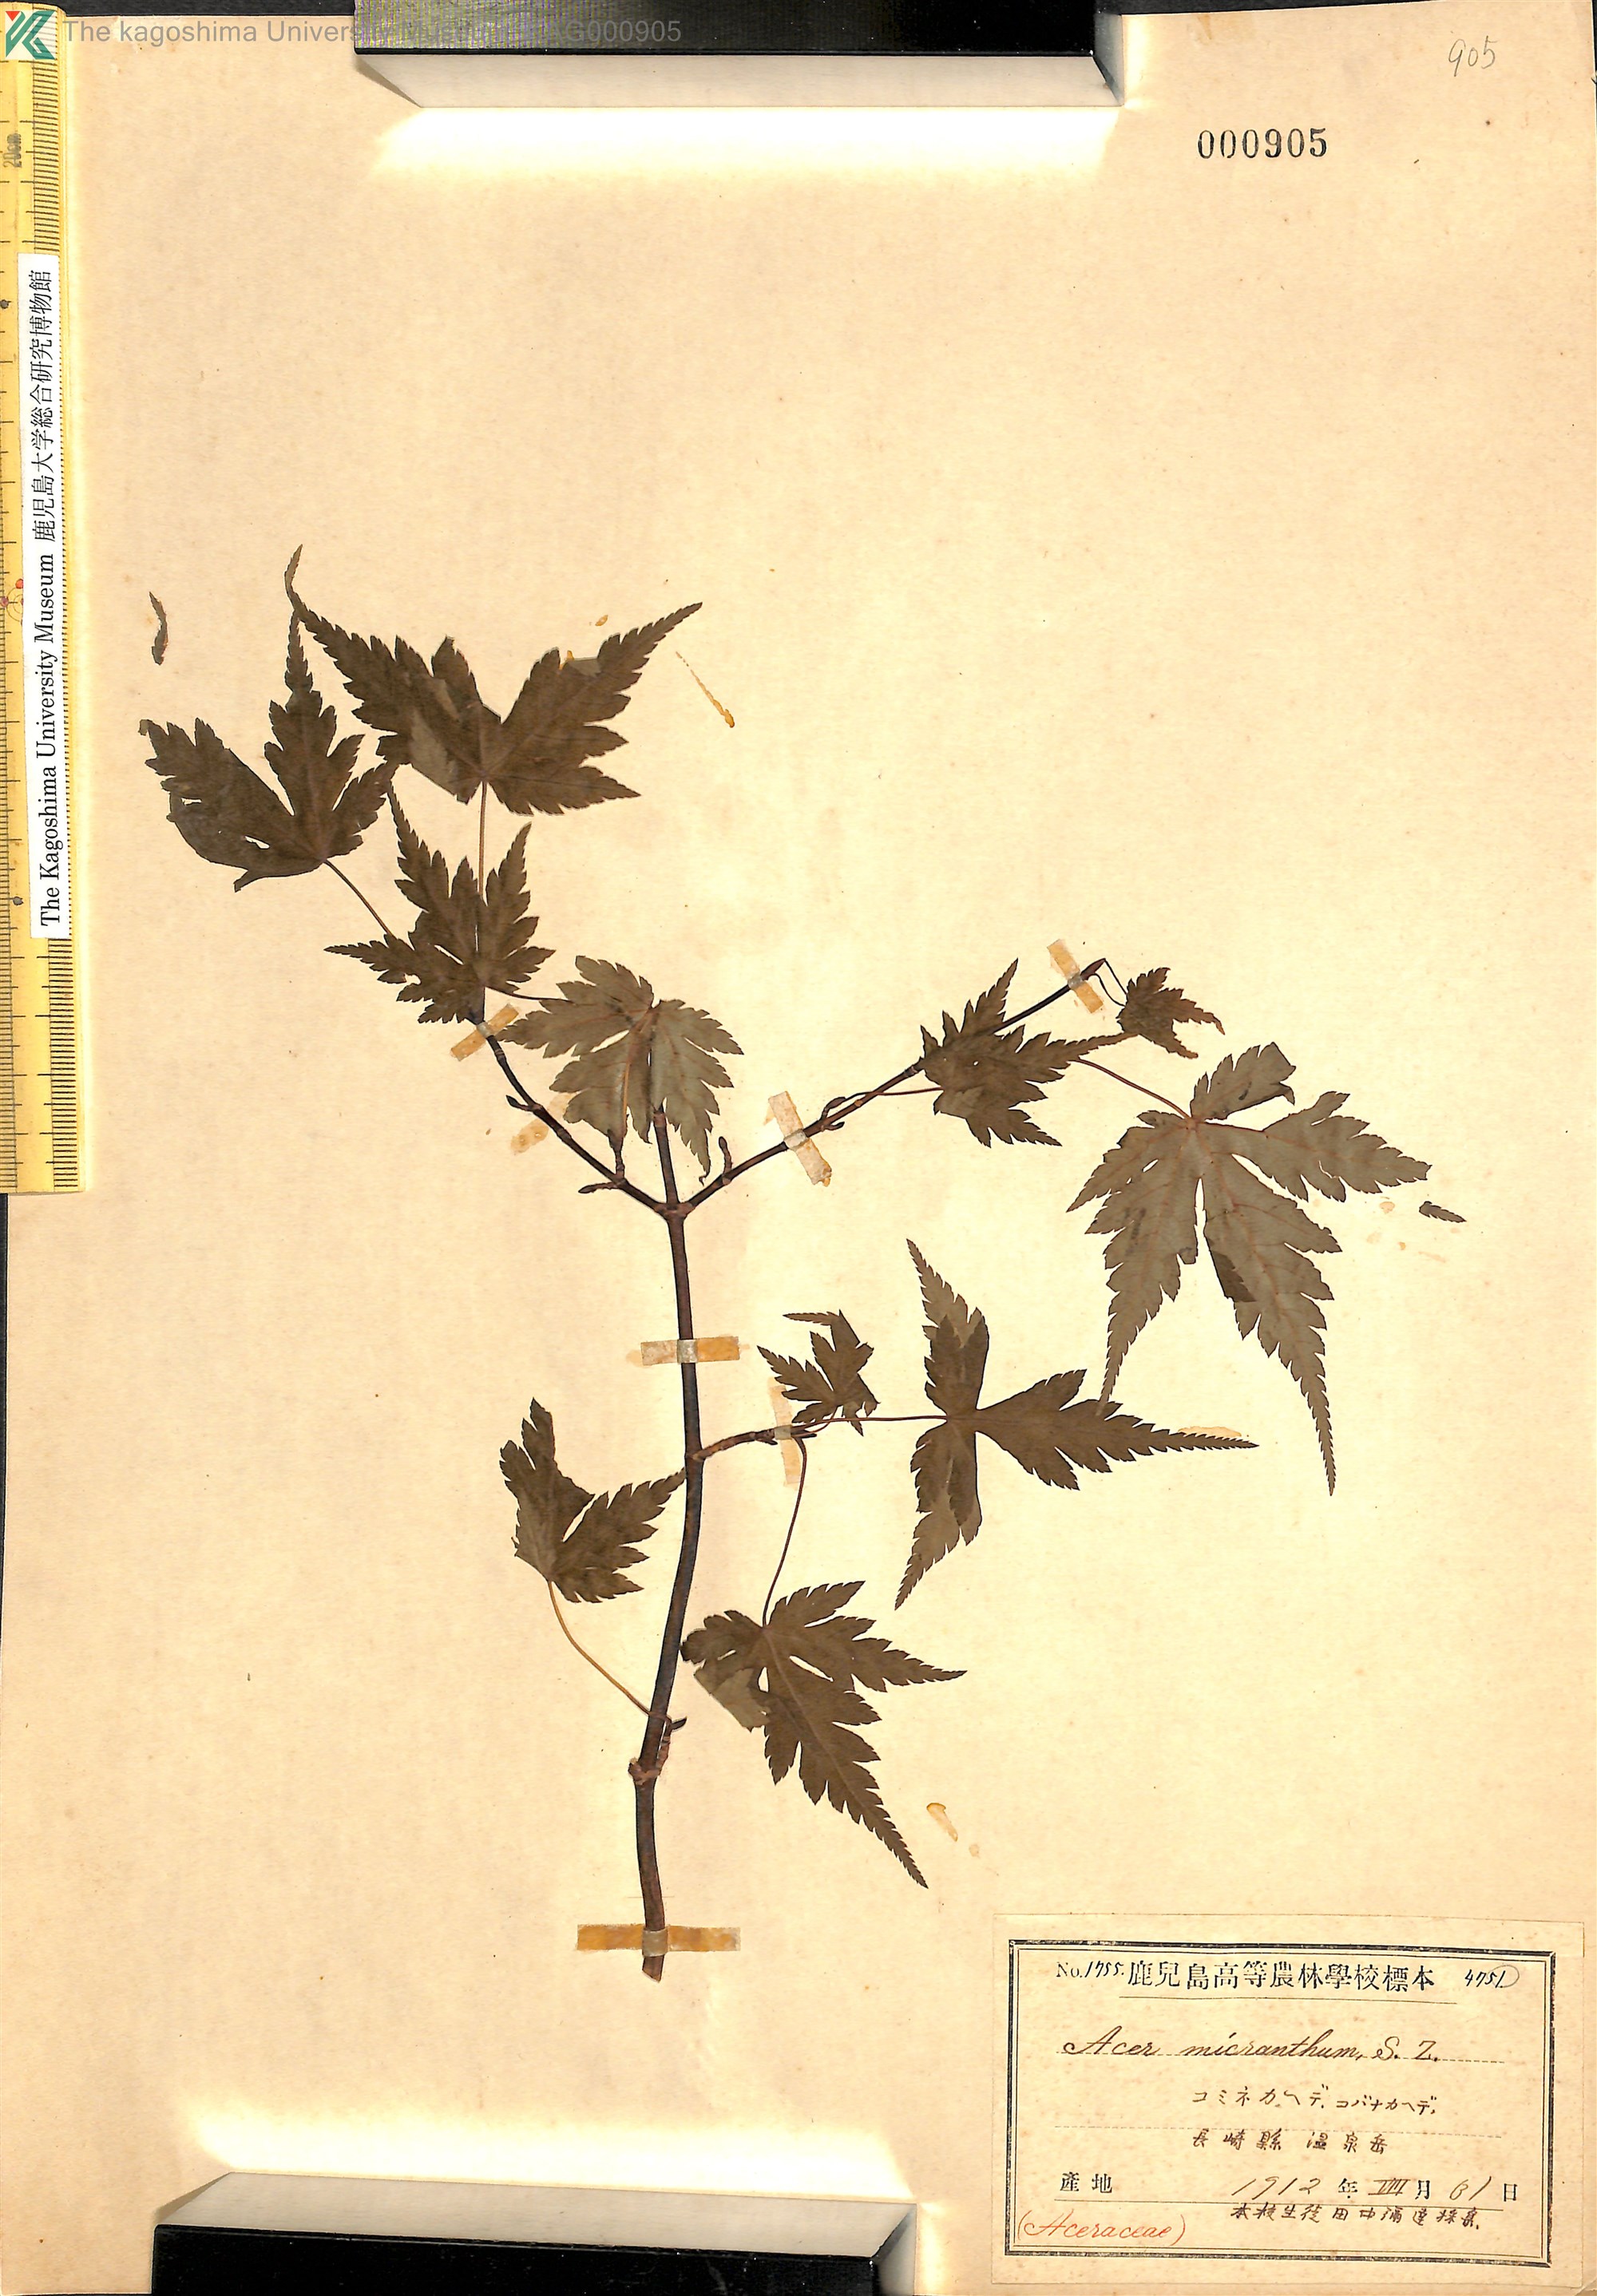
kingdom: Plantae
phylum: Tracheophyta
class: Magnoliopsida
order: Sapindales
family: Sapindaceae
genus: Acer
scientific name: Acer micranthum
